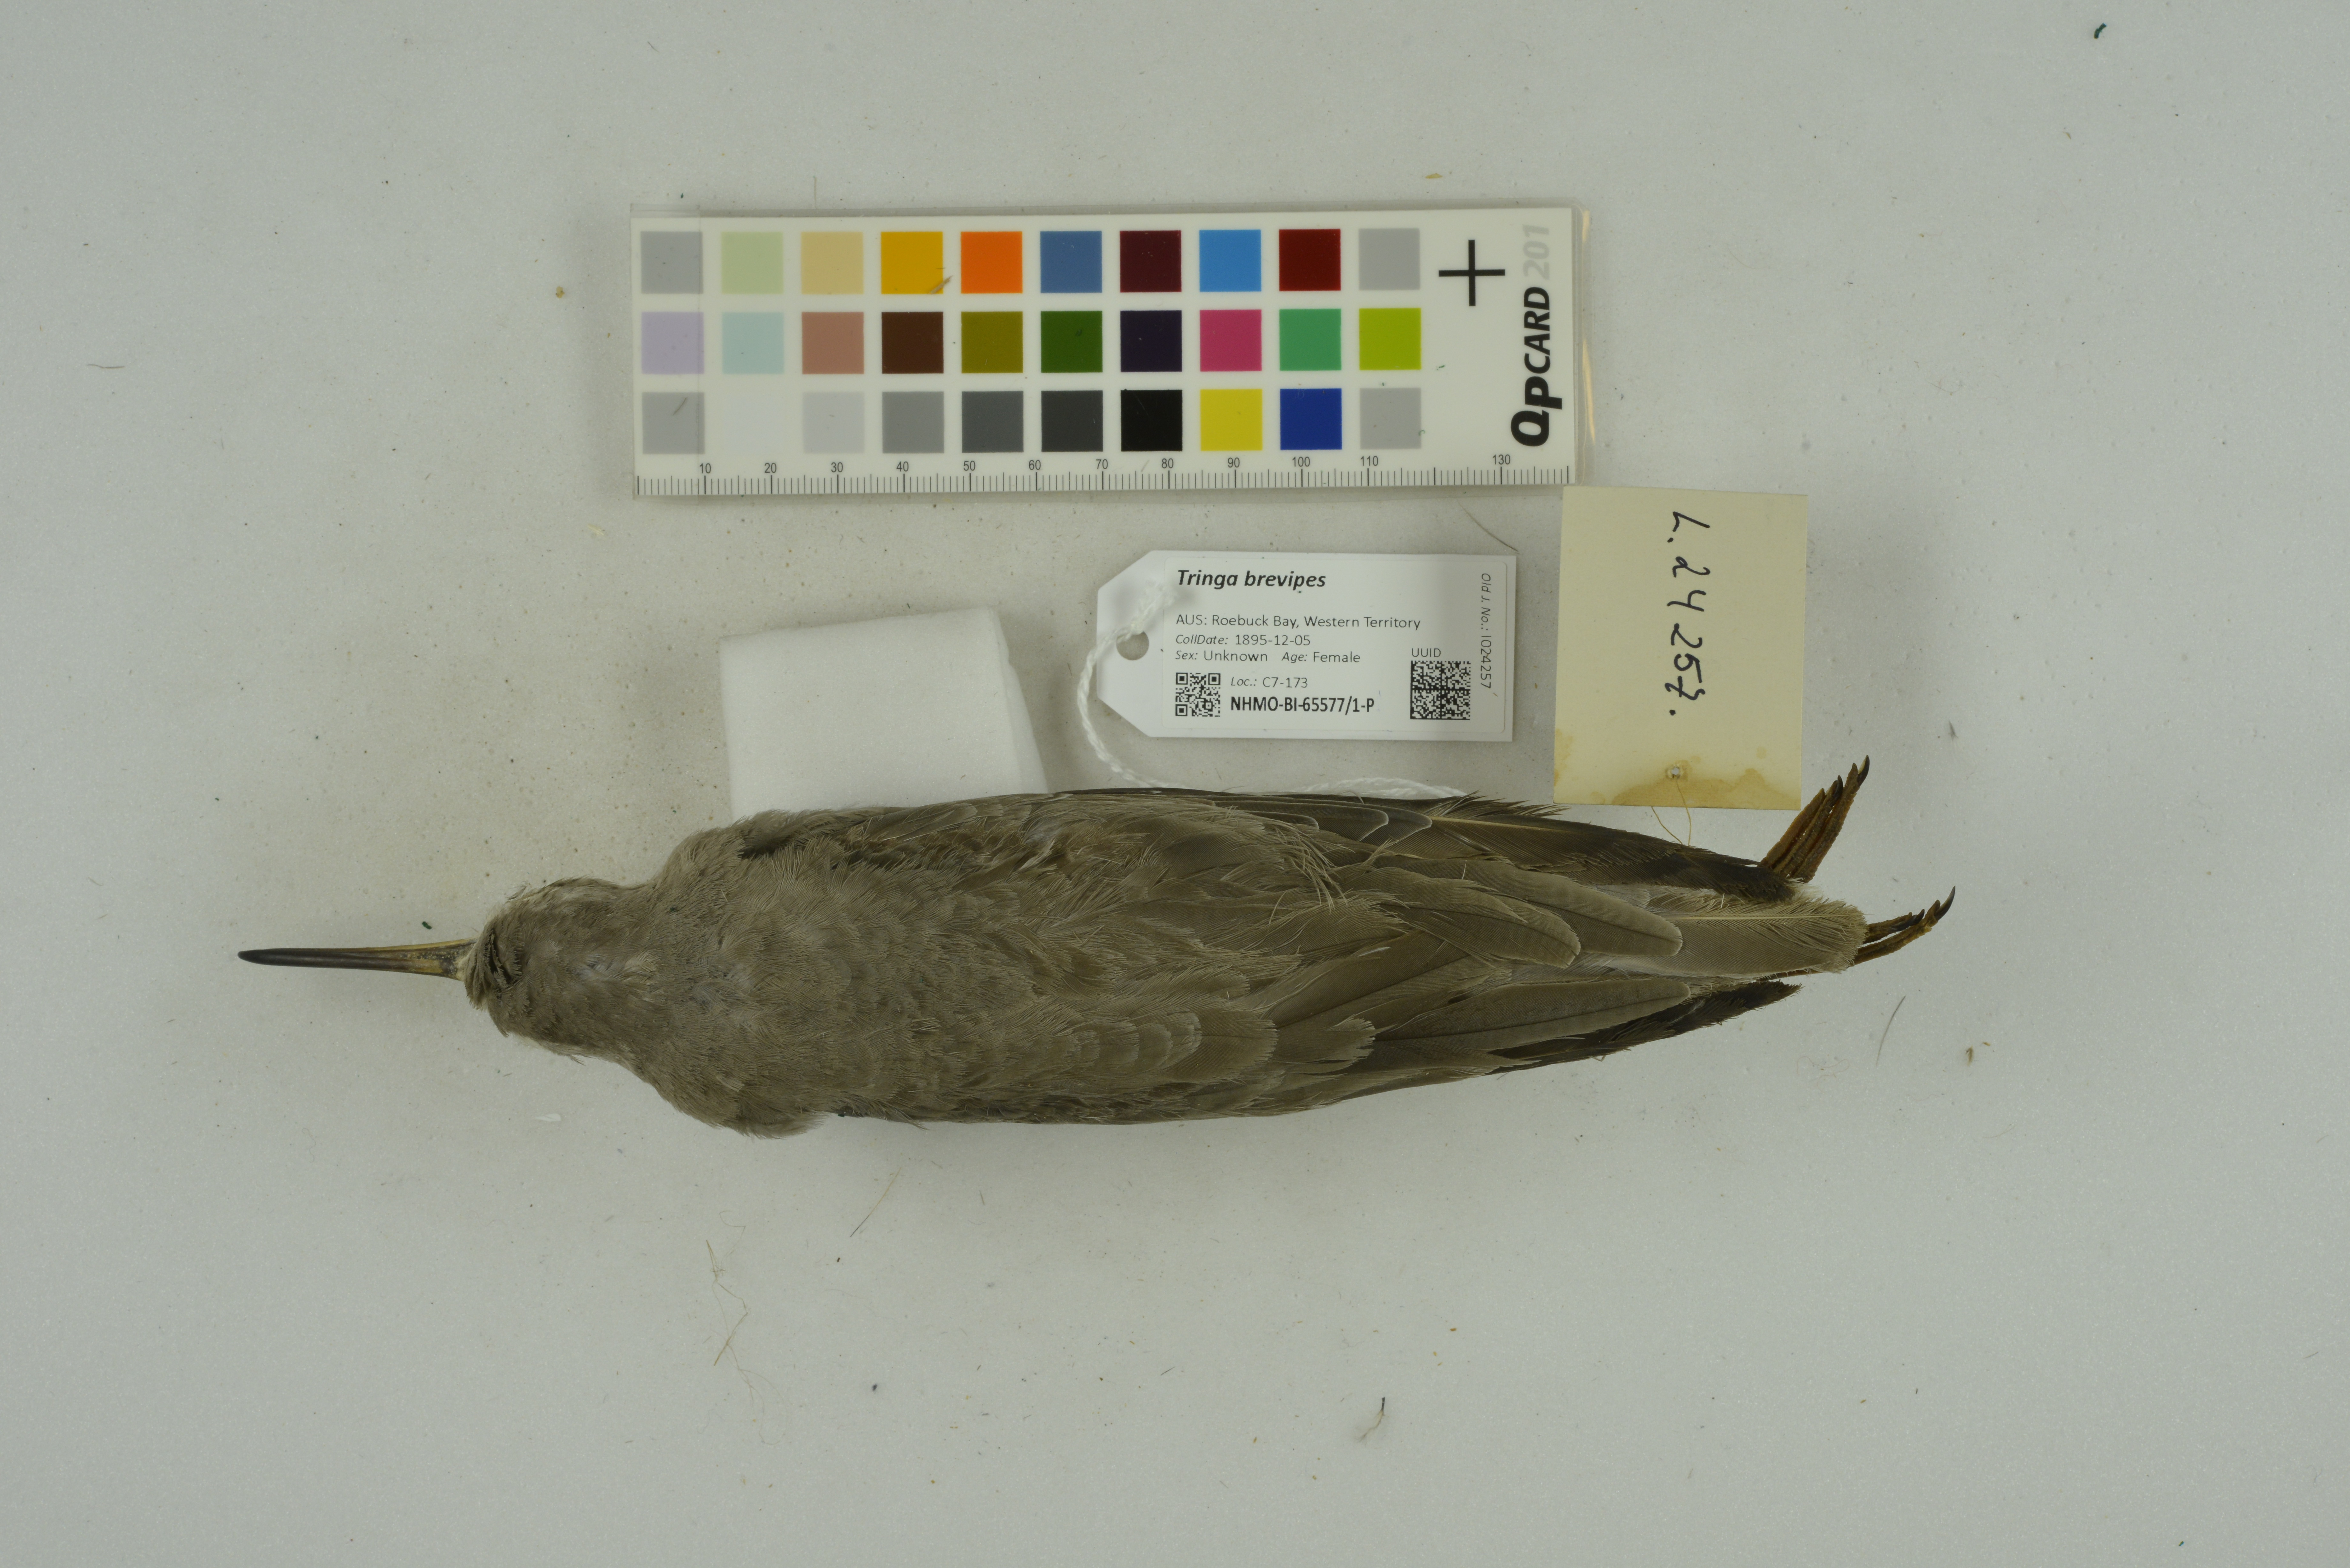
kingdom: Animalia
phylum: Chordata
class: Aves
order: Charadriiformes
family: Scolopacidae
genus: Tringa
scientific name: Tringa brevipes
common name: Grey-tailed tattler
